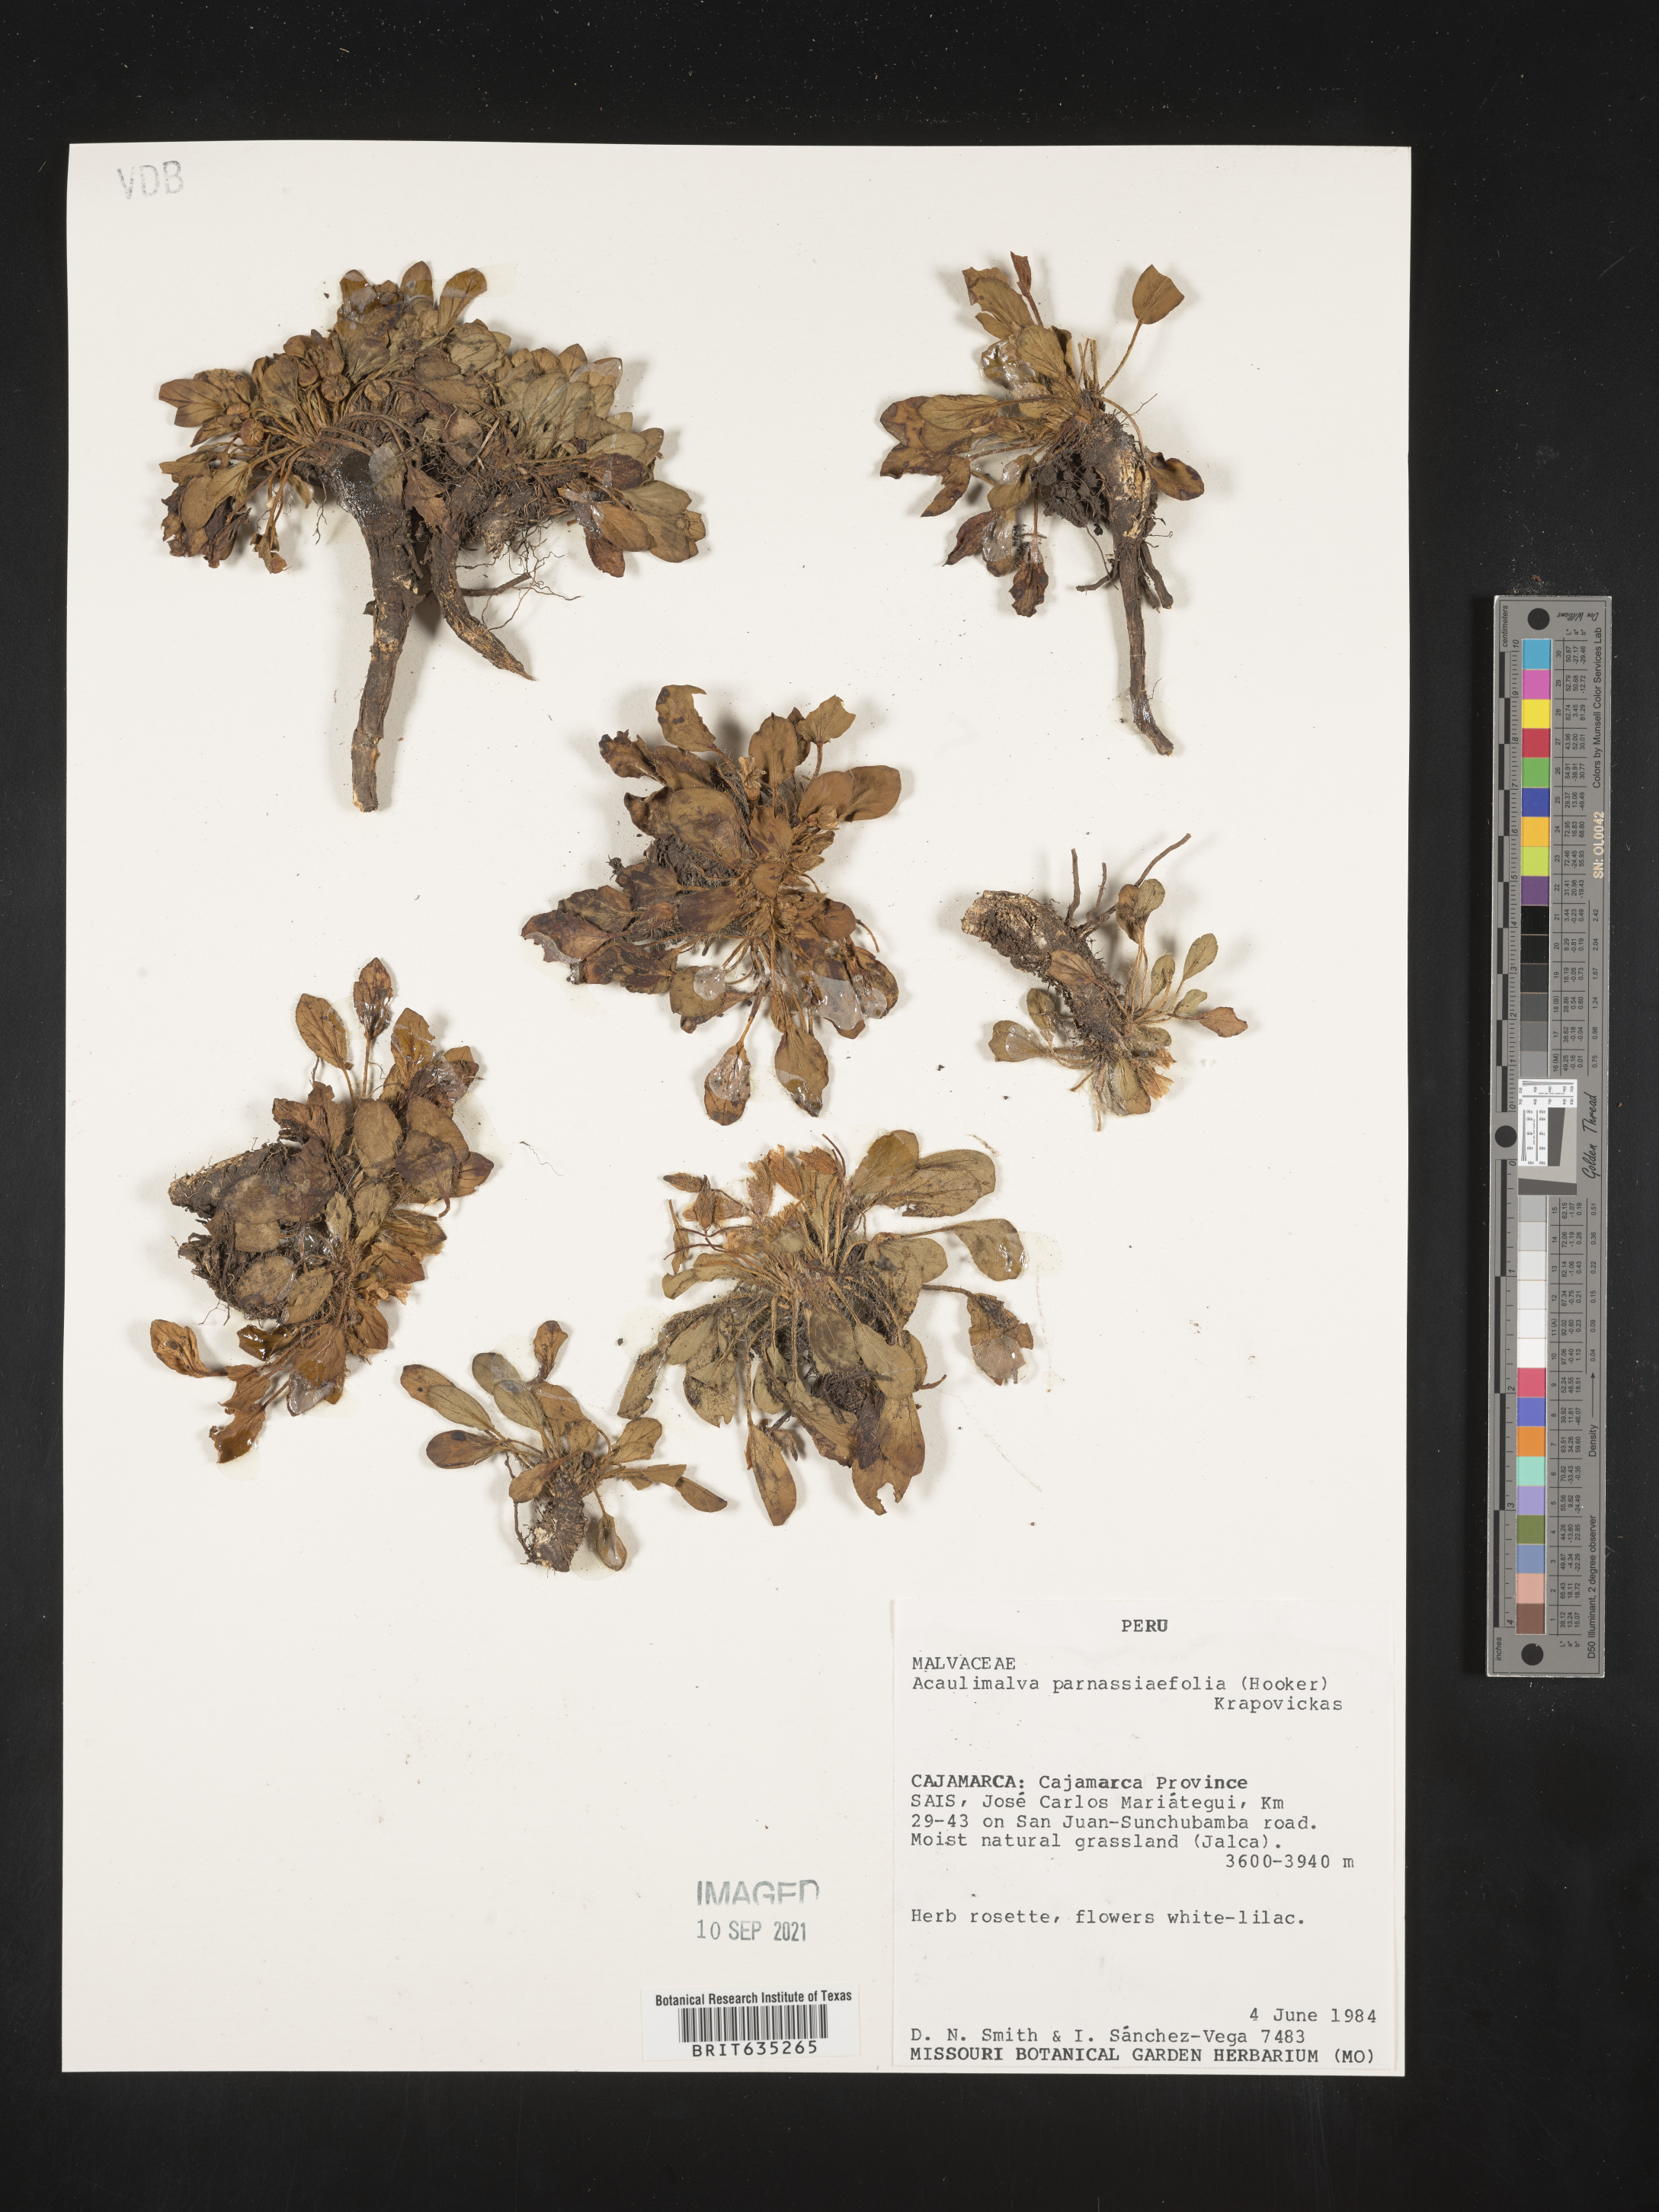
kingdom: Plantae
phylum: Tracheophyta
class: Magnoliopsida
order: Malvales
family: Malvaceae
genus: Acaulimalva
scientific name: Acaulimalva
